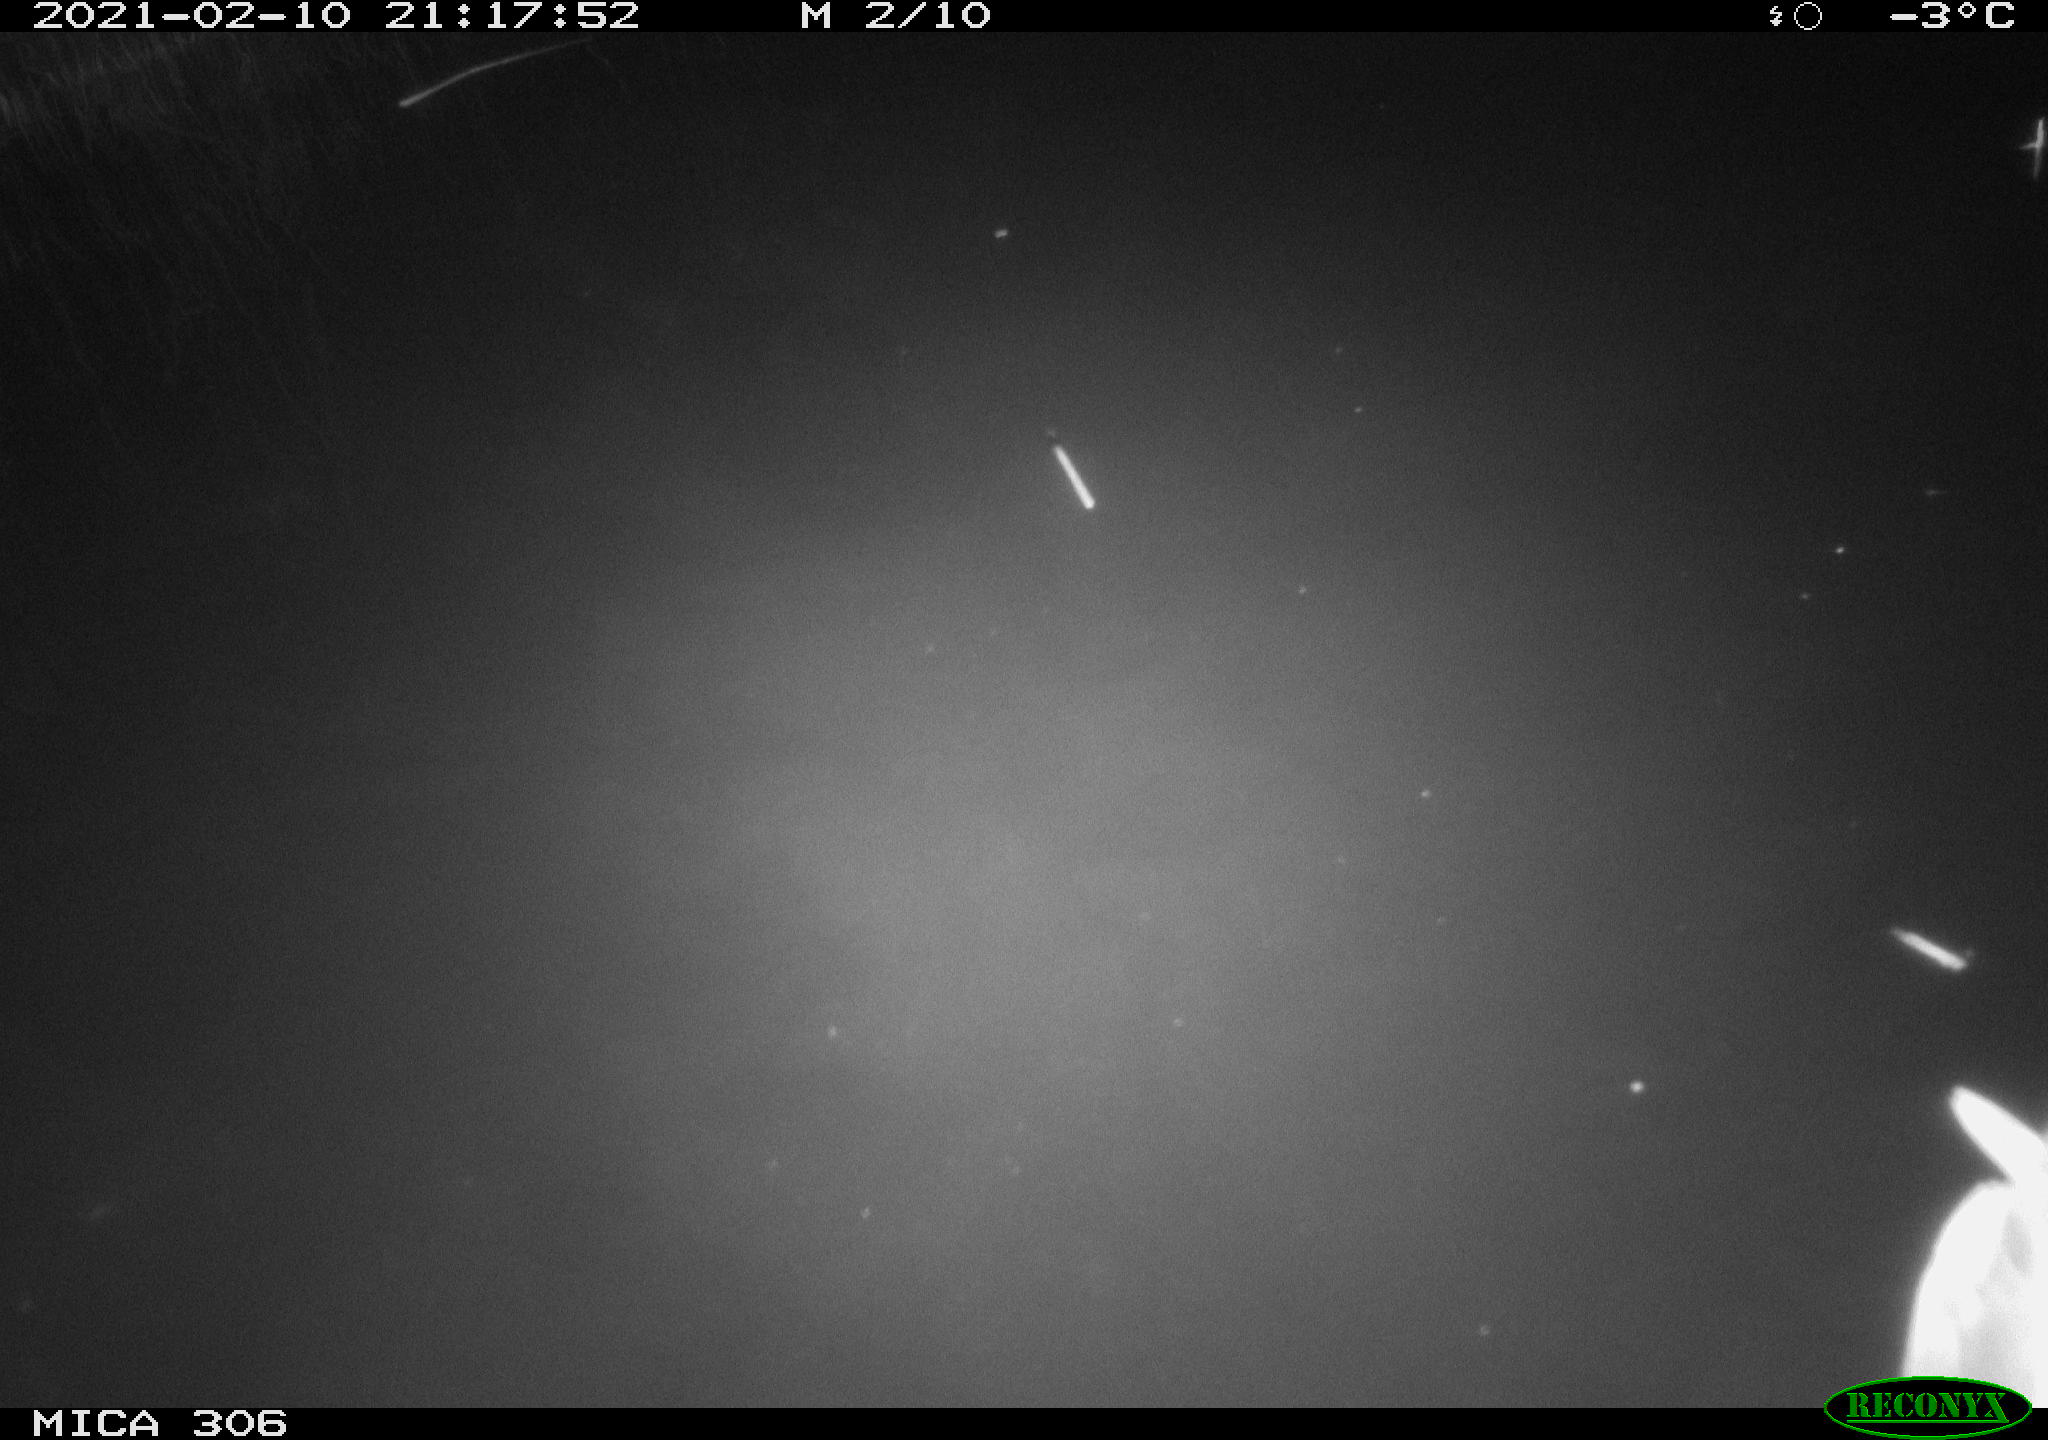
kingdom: Animalia
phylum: Chordata
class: Aves
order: Anseriformes
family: Anatidae
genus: Anas
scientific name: Anas platyrhynchos
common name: Mallard
